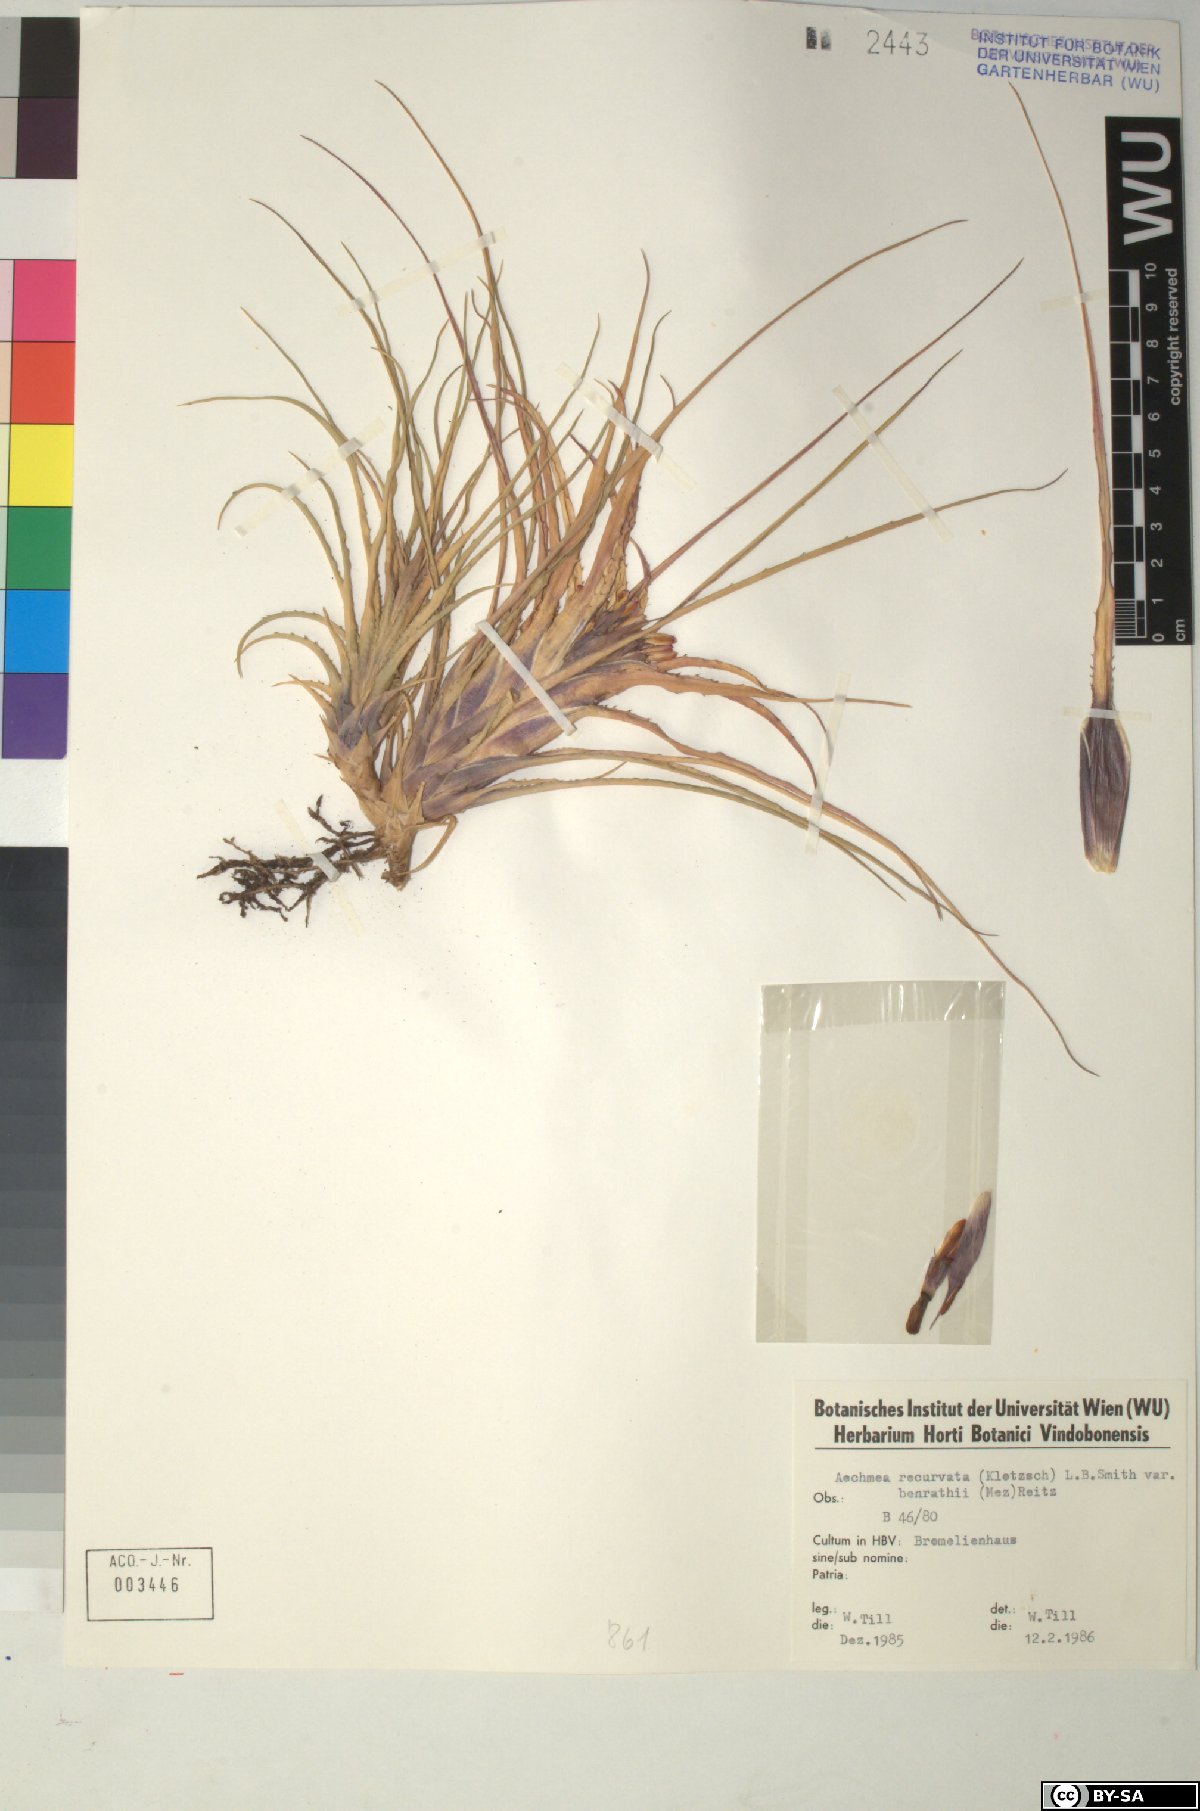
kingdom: Plantae
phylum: Tracheophyta
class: Liliopsida
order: Poales
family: Bromeliaceae
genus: Aechmea
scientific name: Aechmea recurvata
